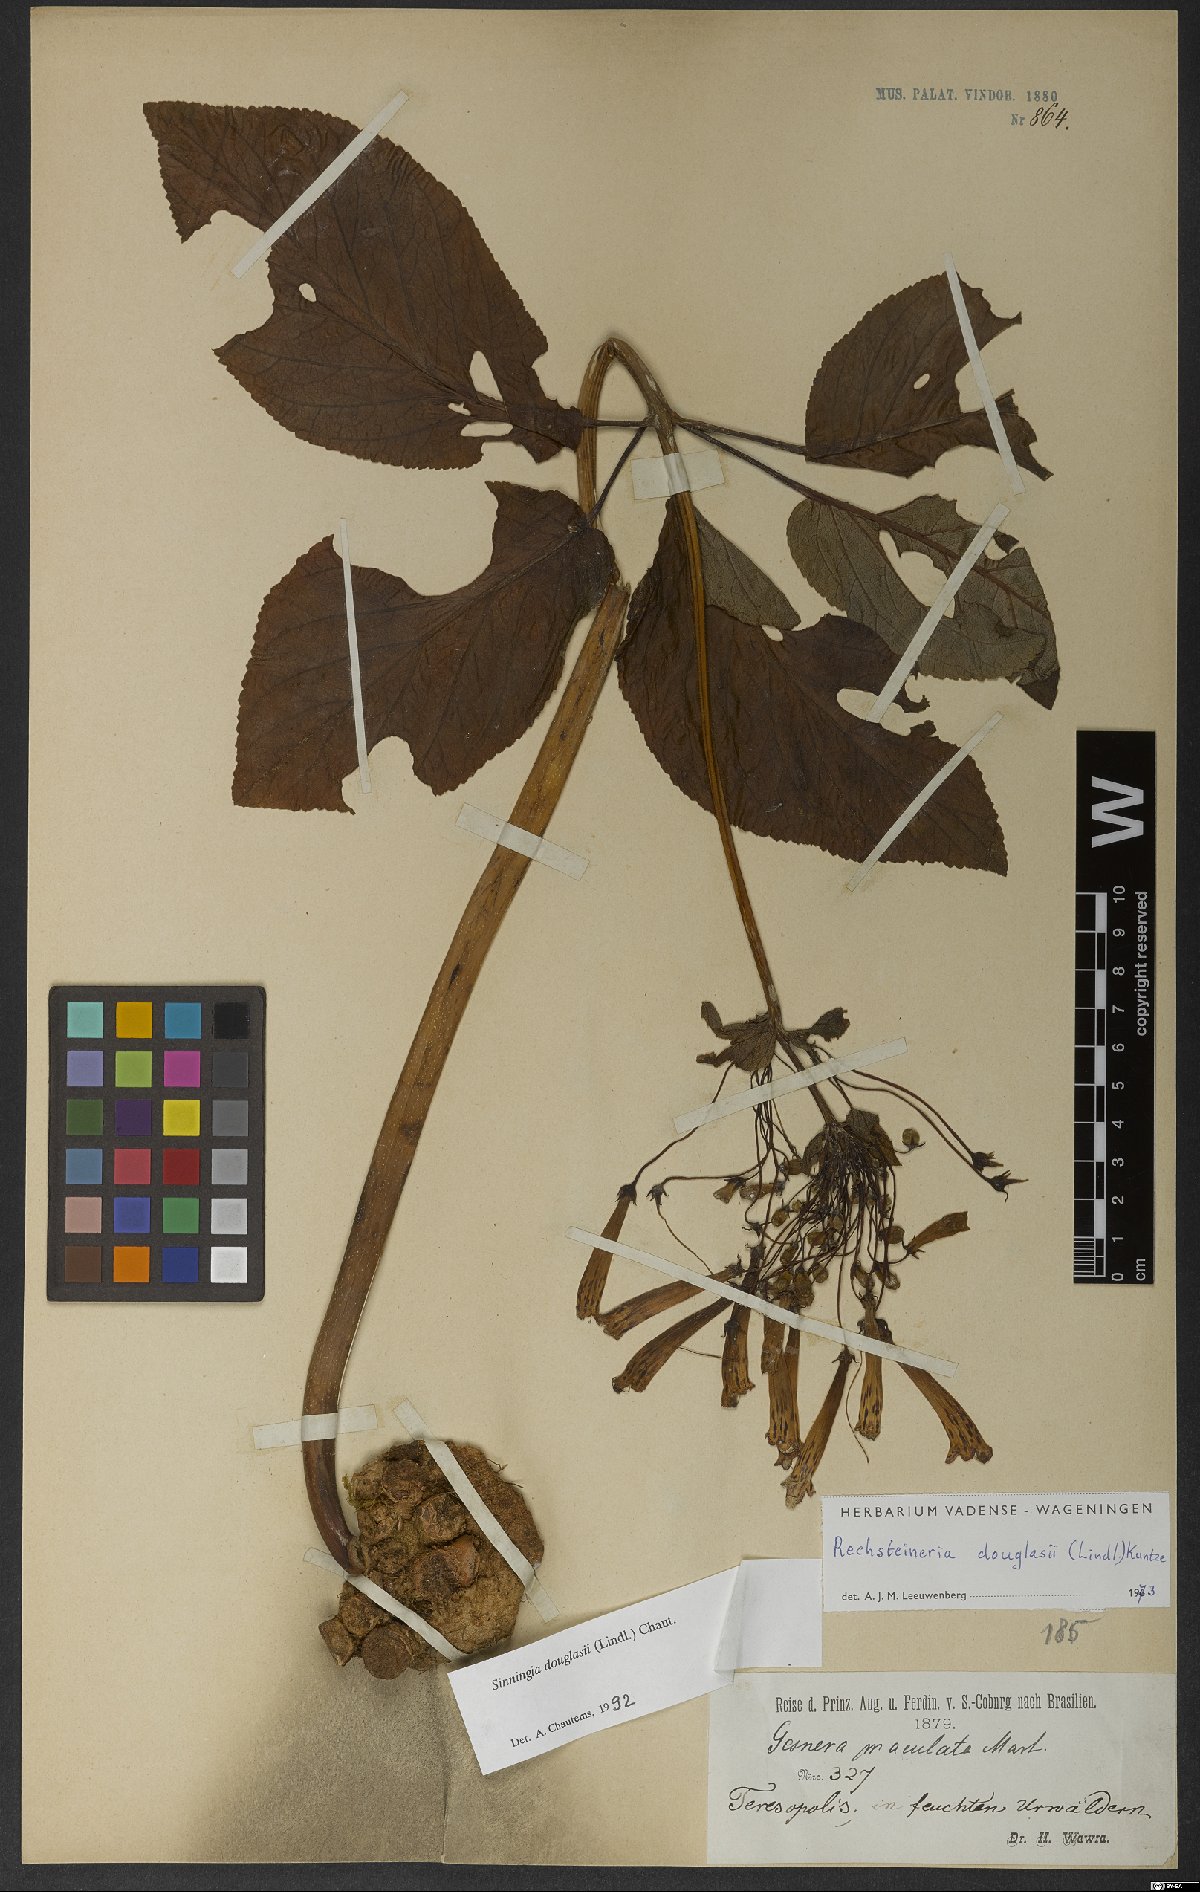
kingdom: Plantae
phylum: Tracheophyta
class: Magnoliopsida
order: Lamiales
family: Gesneriaceae
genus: Sinningia
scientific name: Sinningia douglasii
